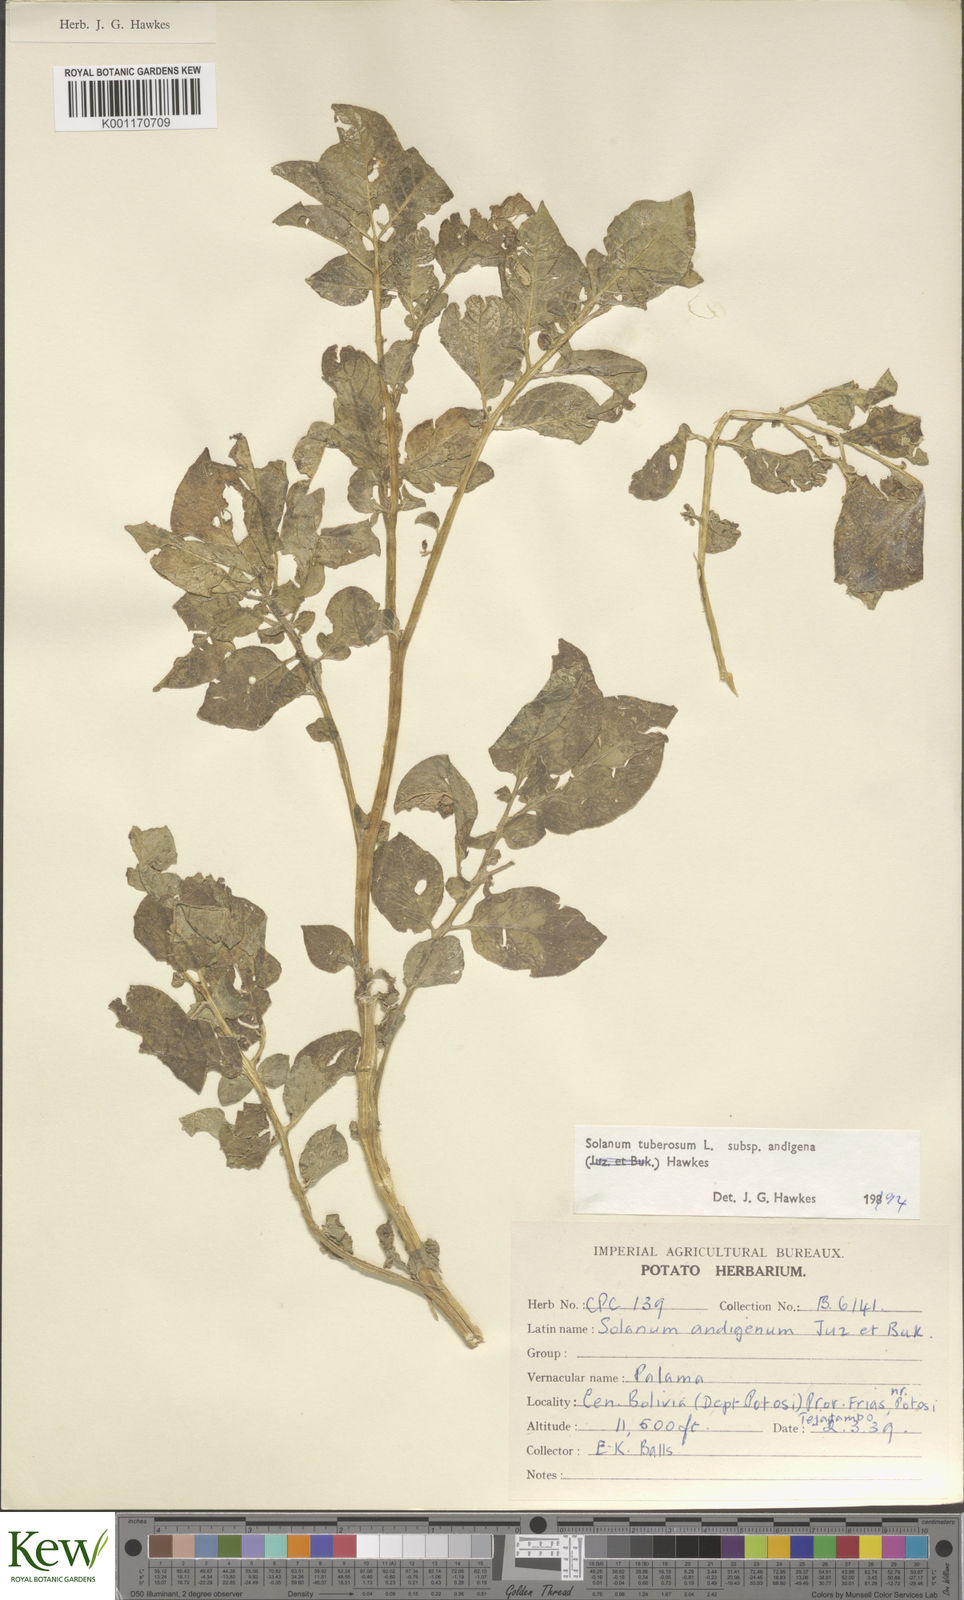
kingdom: Plantae
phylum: Tracheophyta
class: Magnoliopsida
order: Solanales
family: Solanaceae
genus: Solanum
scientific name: Solanum tuberosum
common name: Potato
